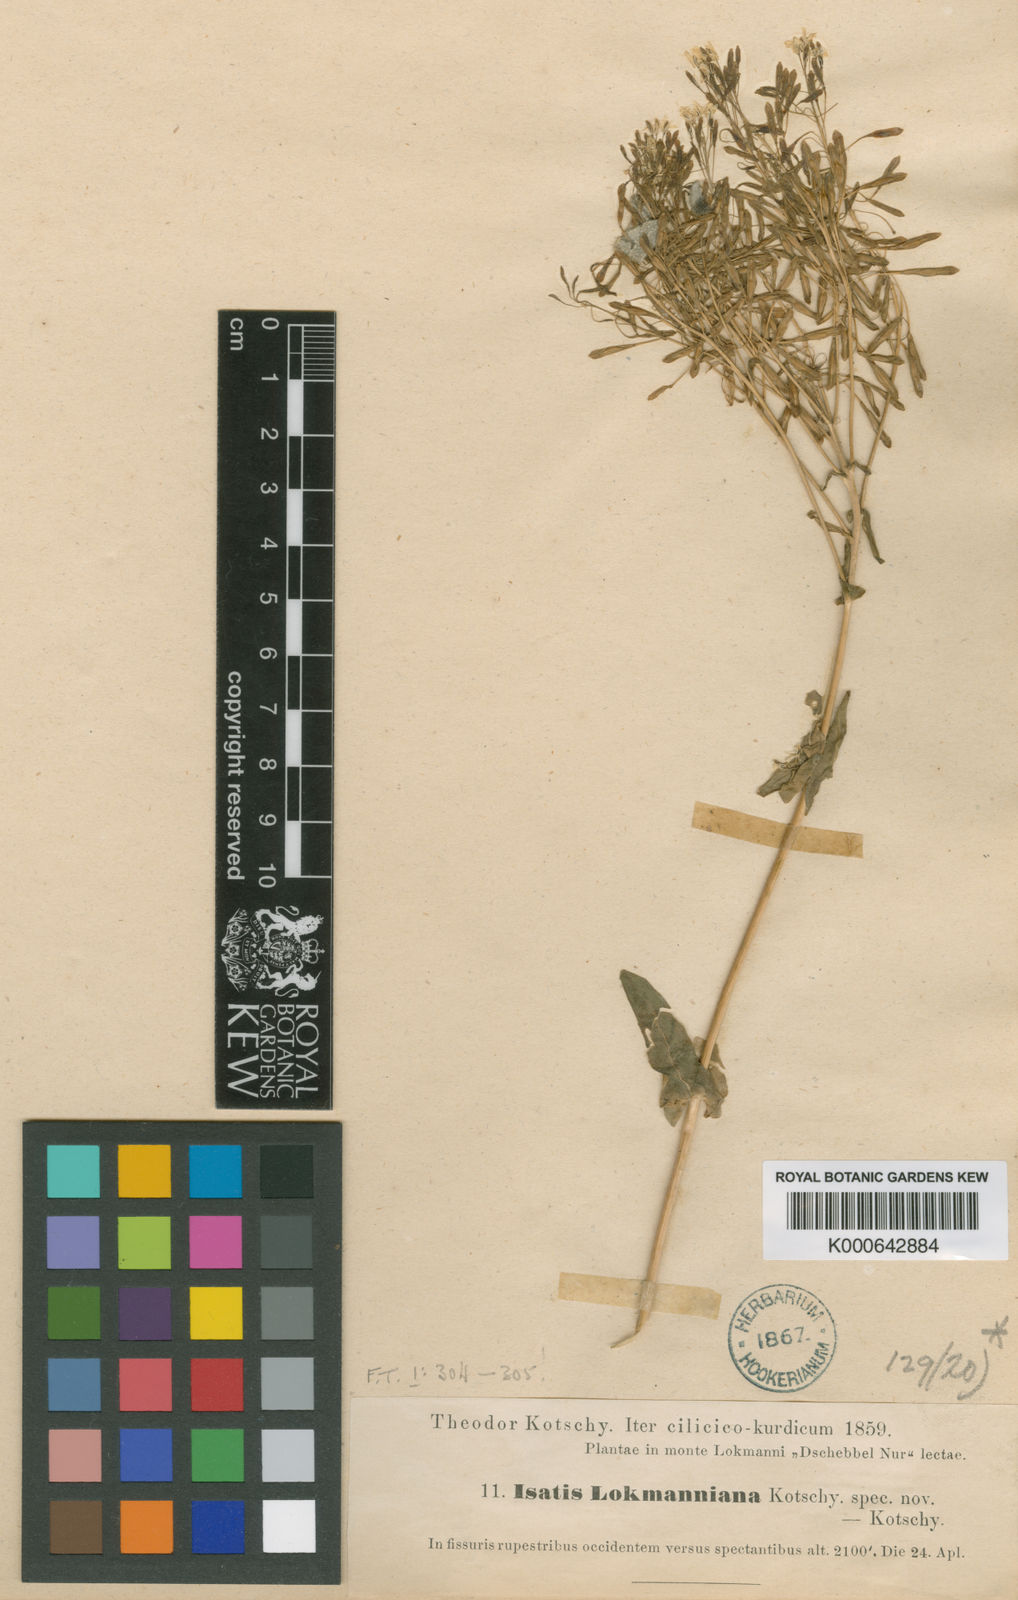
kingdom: Plantae
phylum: Tracheophyta
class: Magnoliopsida
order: Brassicales
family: Brassicaceae
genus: Isatis
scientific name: Isatis lockmanniana
